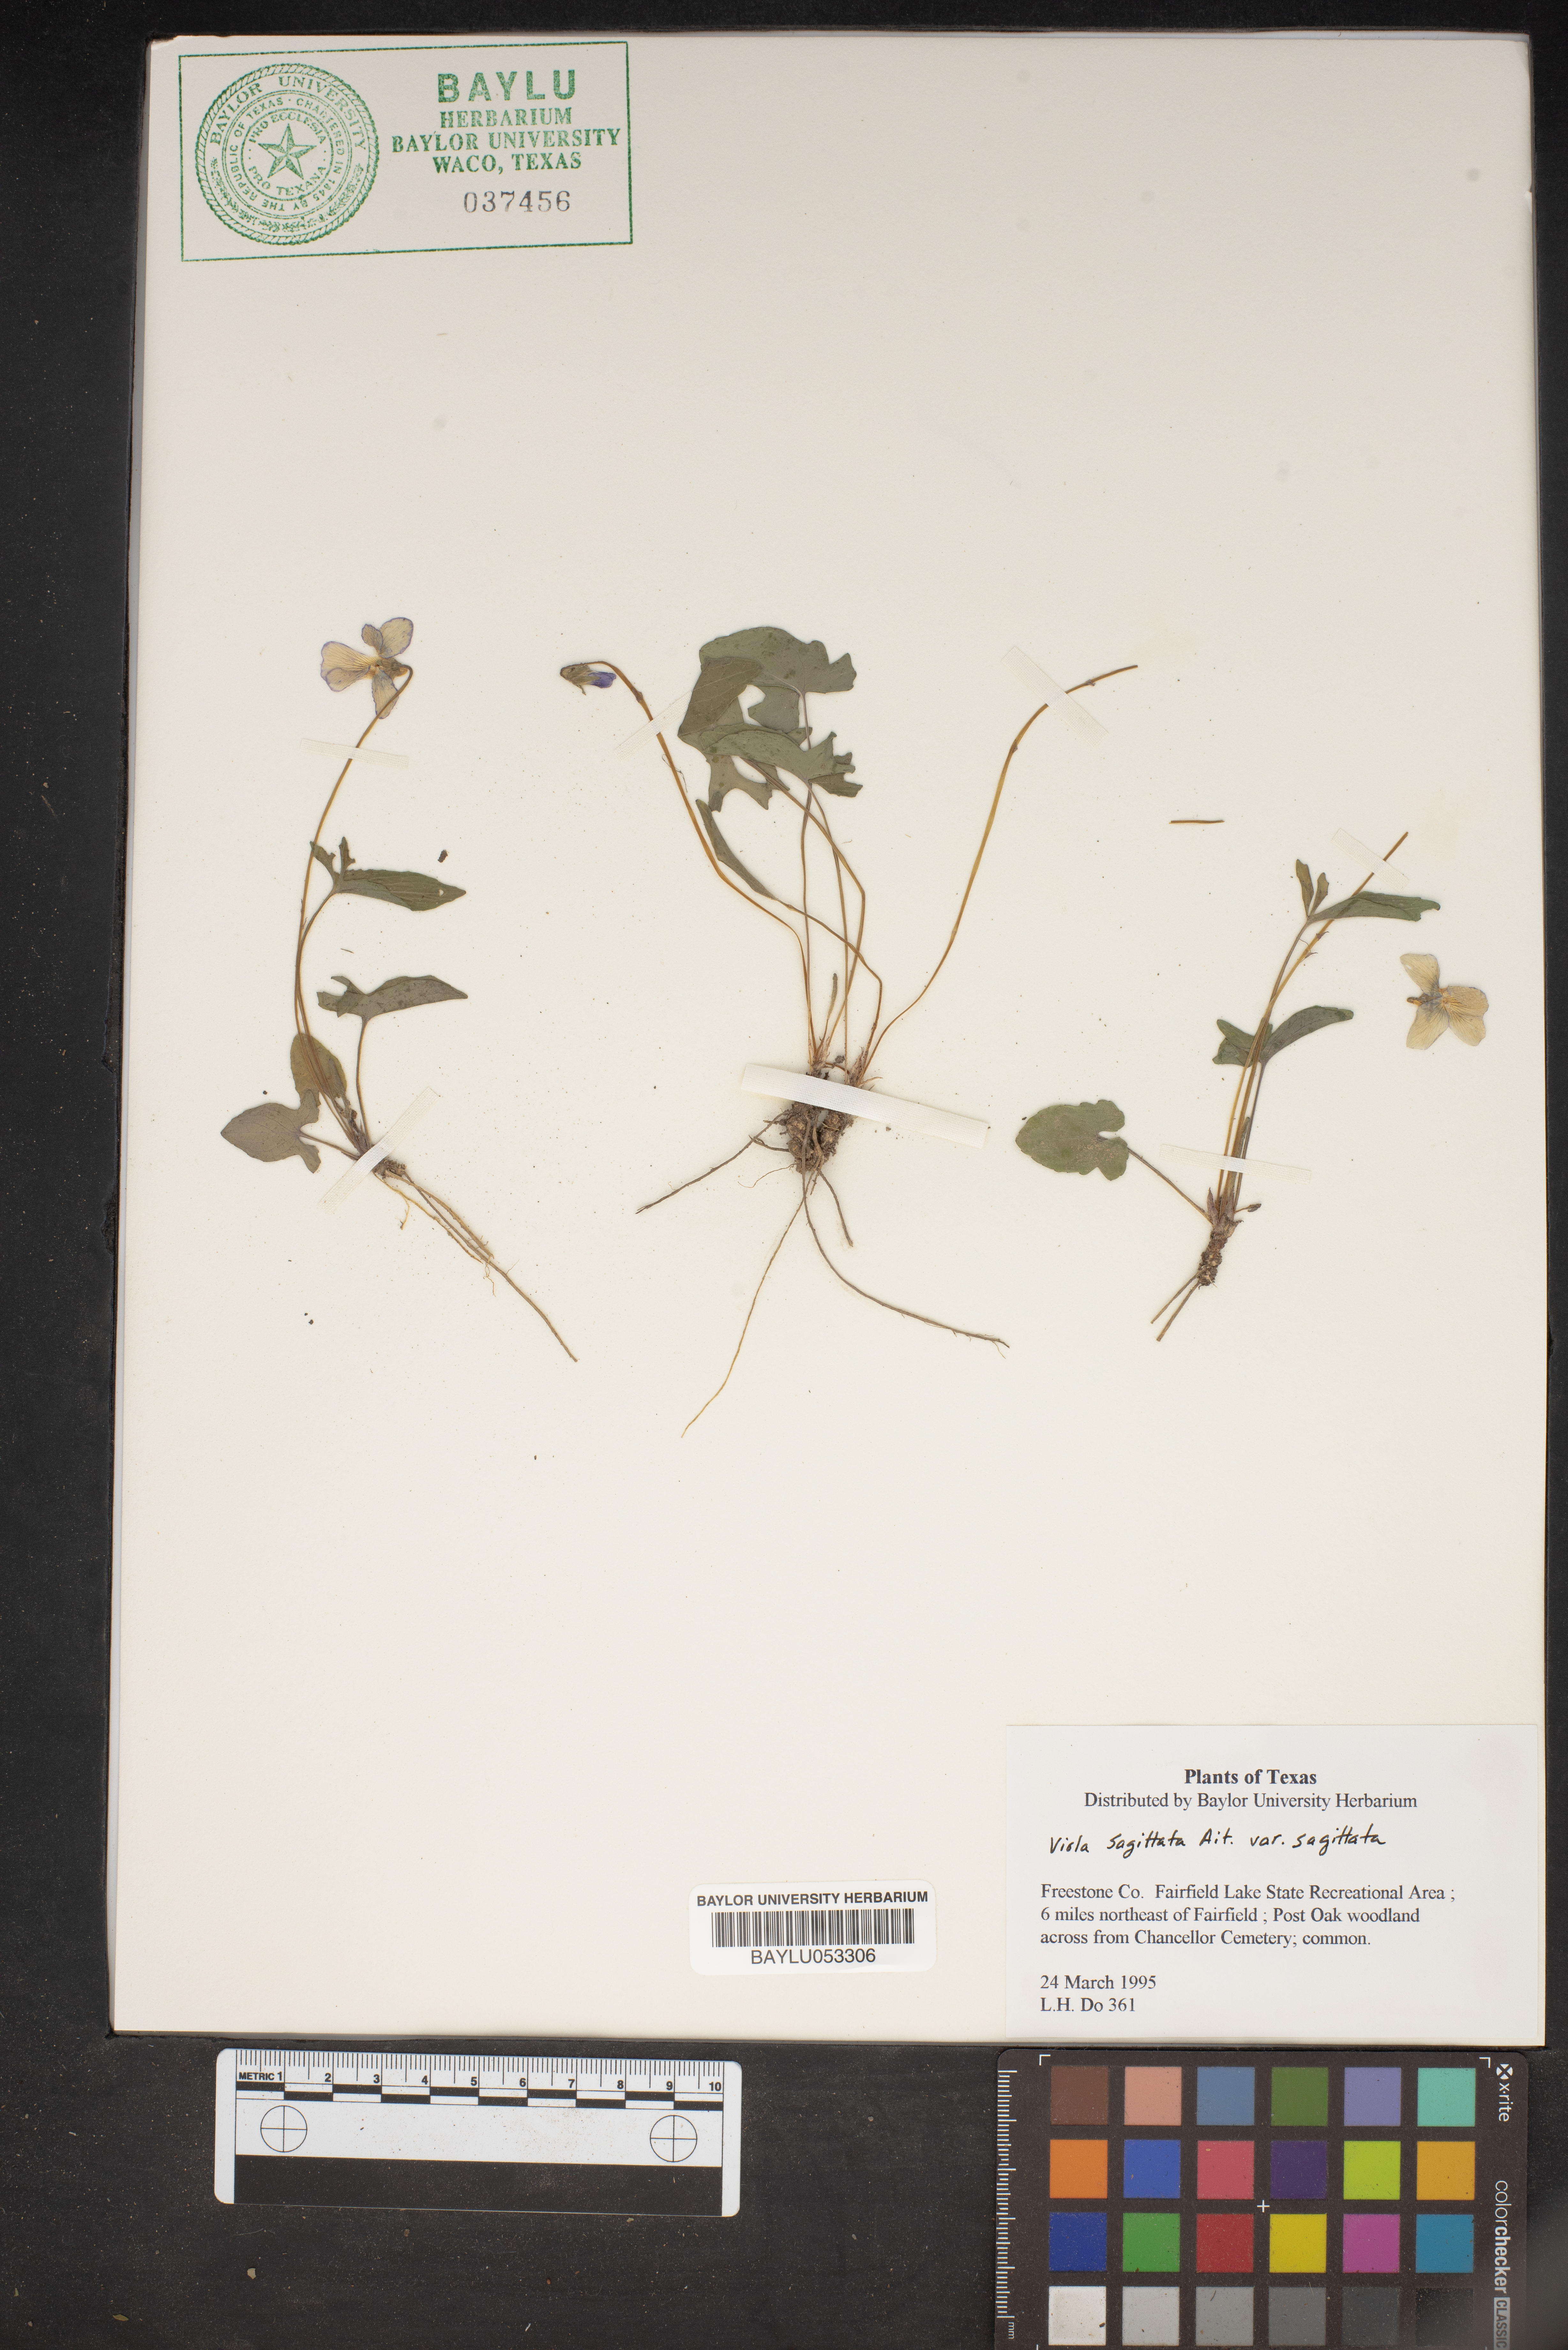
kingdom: Plantae
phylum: Tracheophyta
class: Magnoliopsida
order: Malpighiales
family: Violaceae
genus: Viola
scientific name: Viola sagittata
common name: Arrowhead violet
